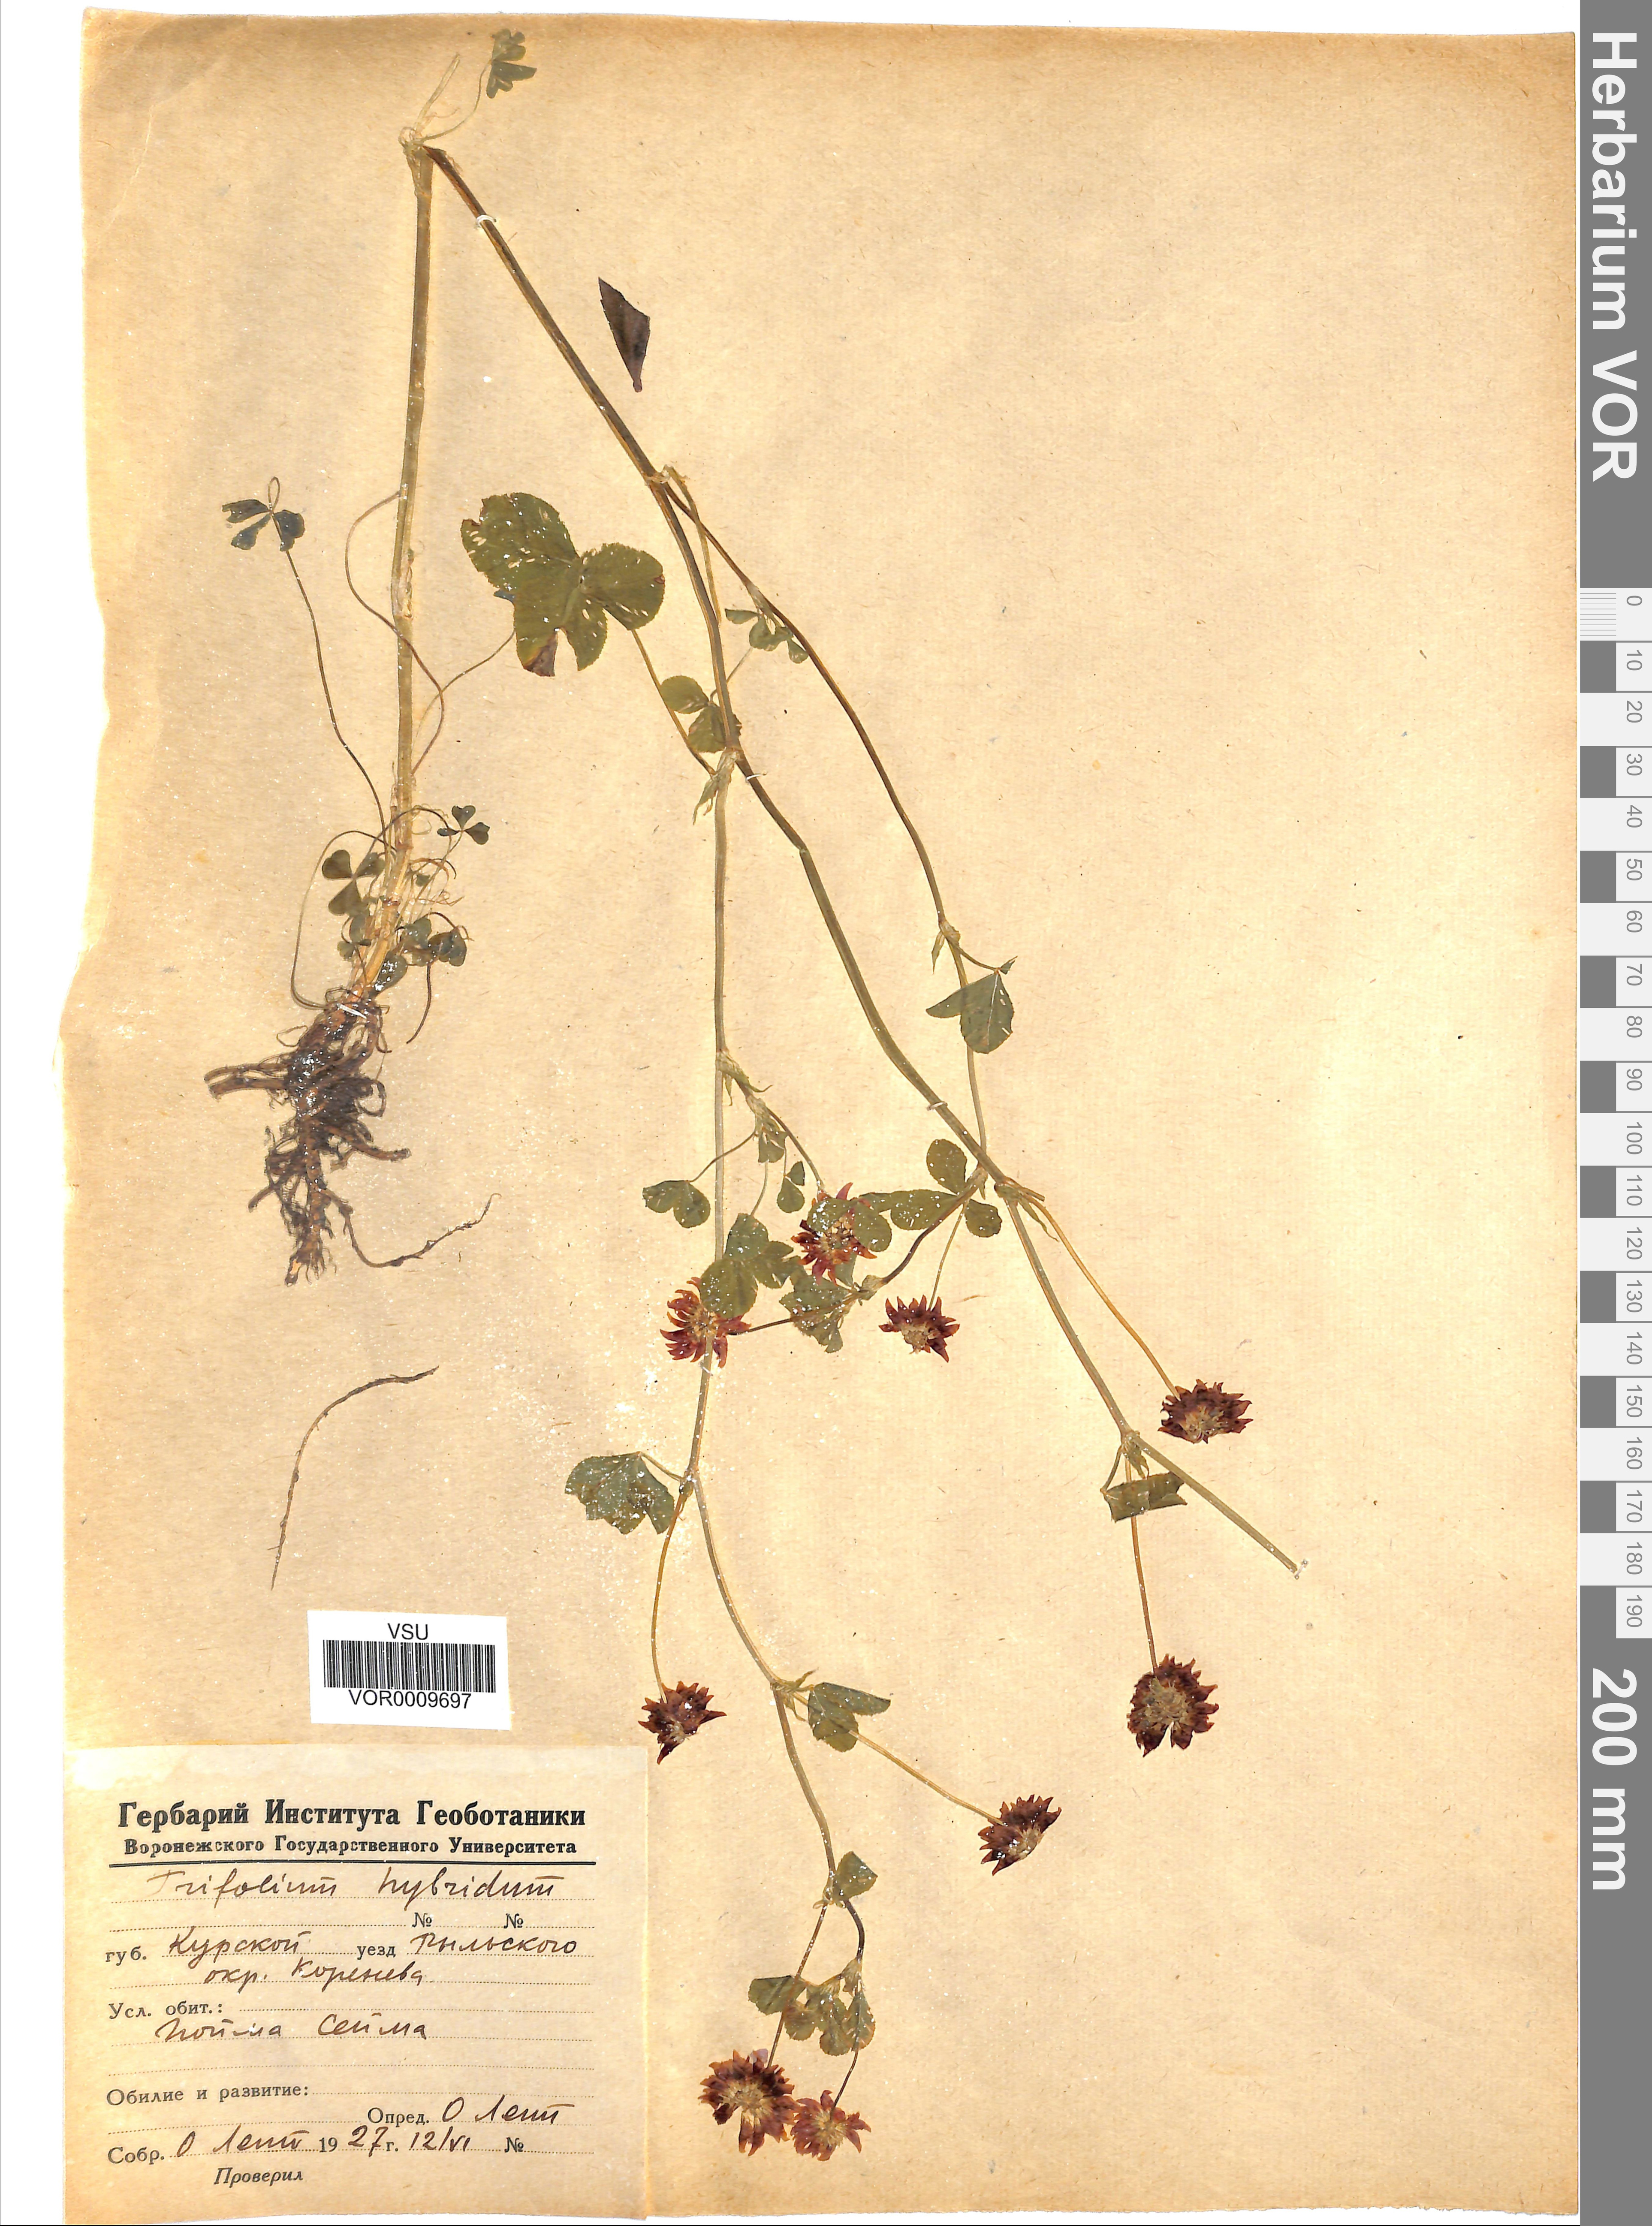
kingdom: Plantae
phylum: Tracheophyta
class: Magnoliopsida
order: Fabales
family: Fabaceae
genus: Trifolium
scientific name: Trifolium hybridum
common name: Alsike clover
